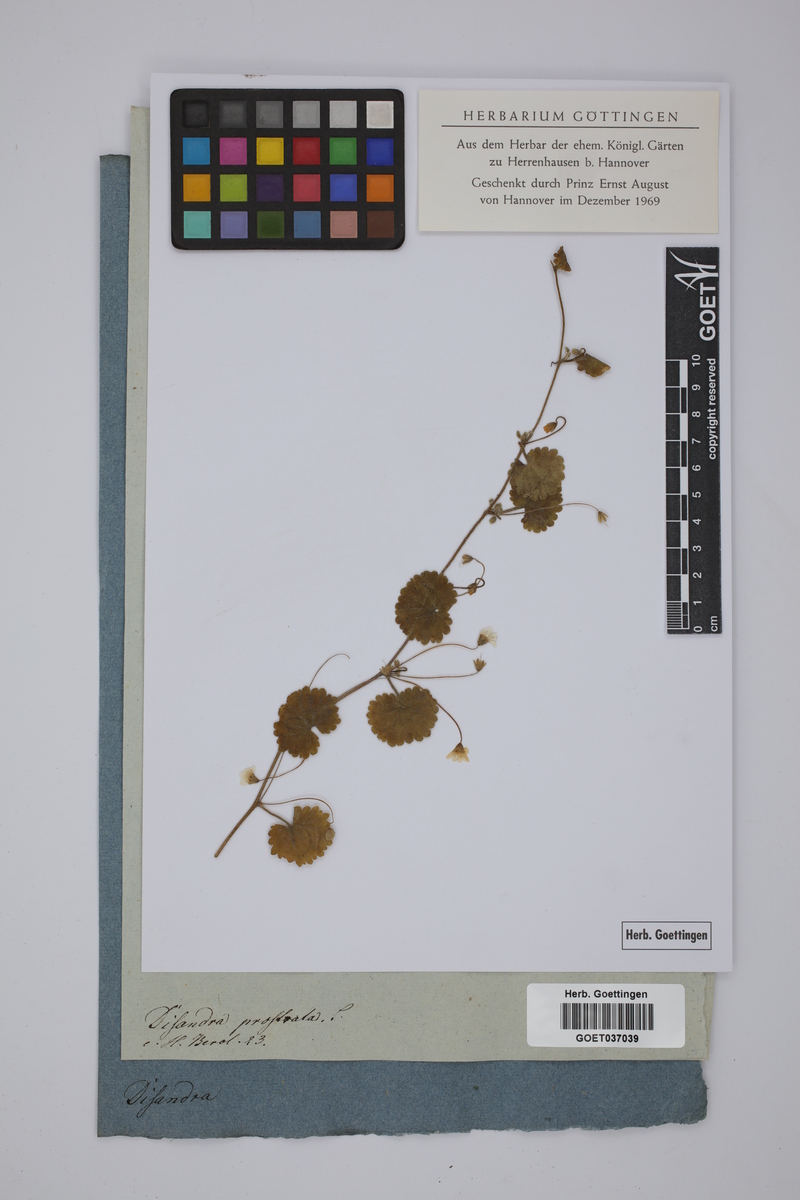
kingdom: Plantae
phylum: Tracheophyta
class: Magnoliopsida
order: Lamiales
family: Plantaginaceae
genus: Sibthorpia
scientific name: Sibthorpia peregrina
